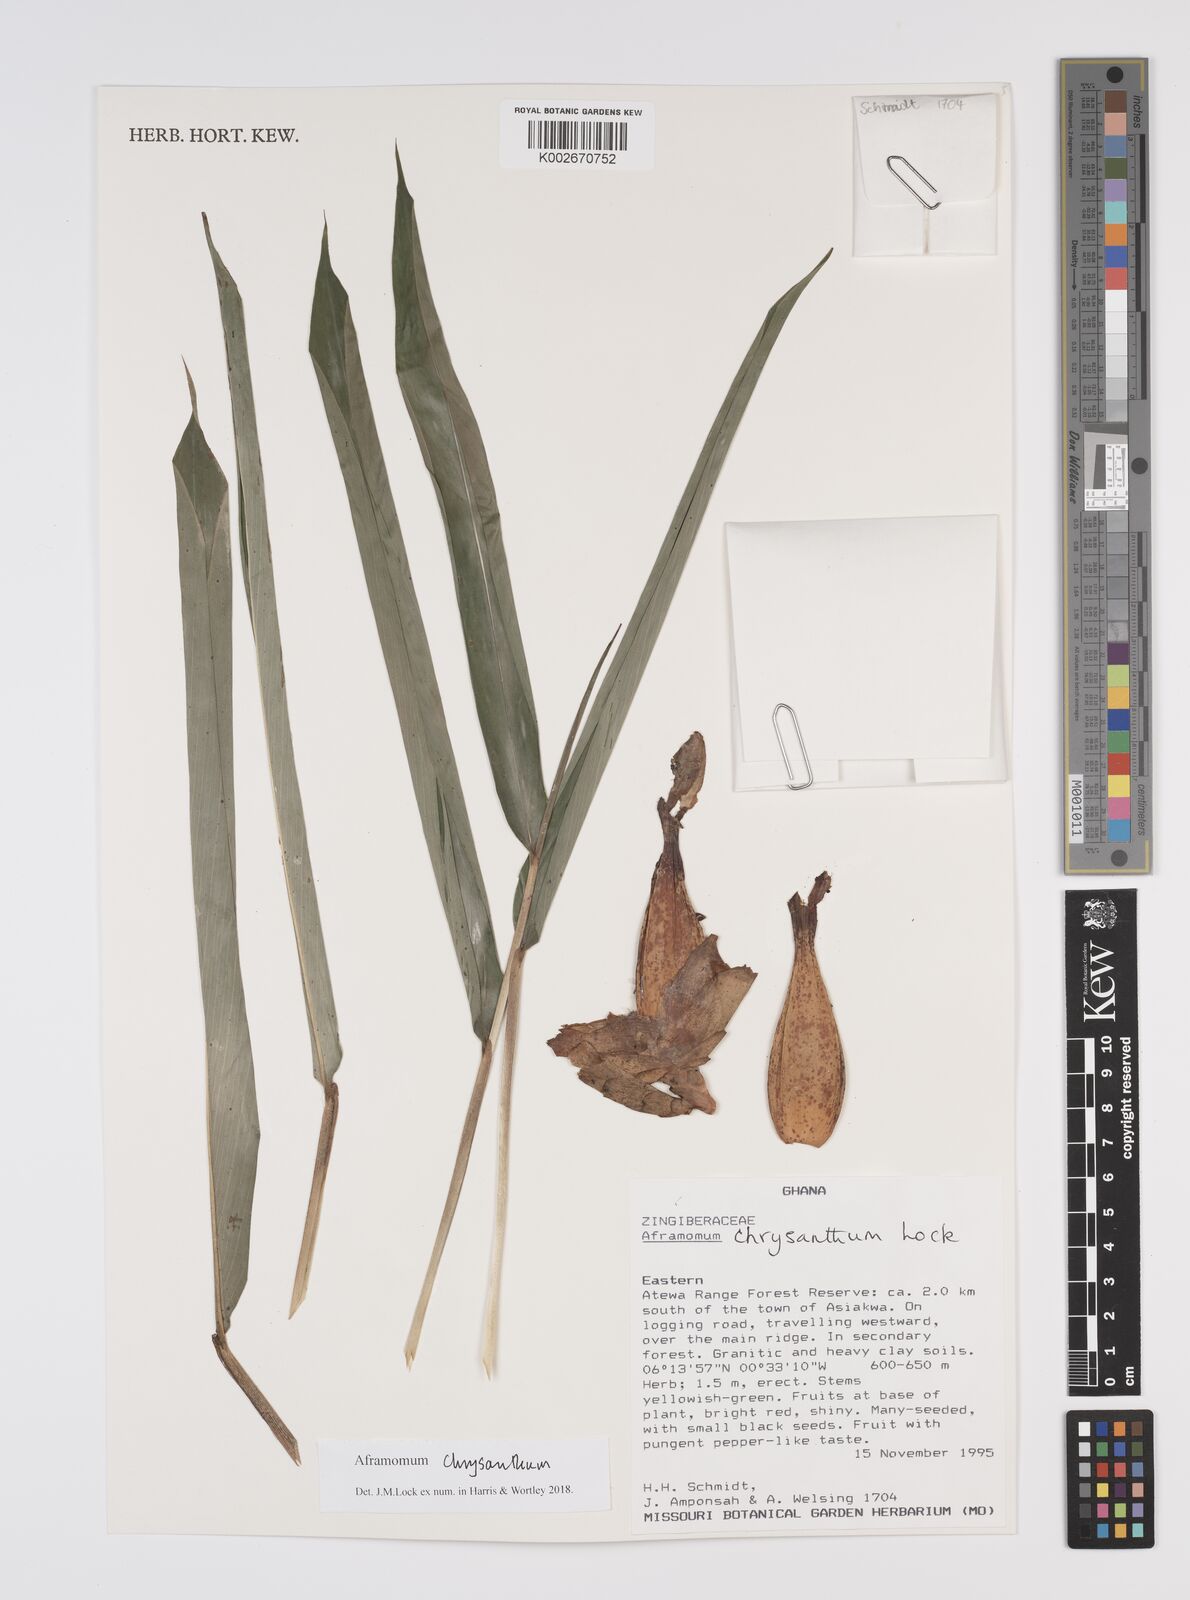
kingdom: Plantae
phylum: Tracheophyta
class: Liliopsida
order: Zingiberales
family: Zingiberaceae
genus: Aframomum
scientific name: Aframomum chrysanthum
